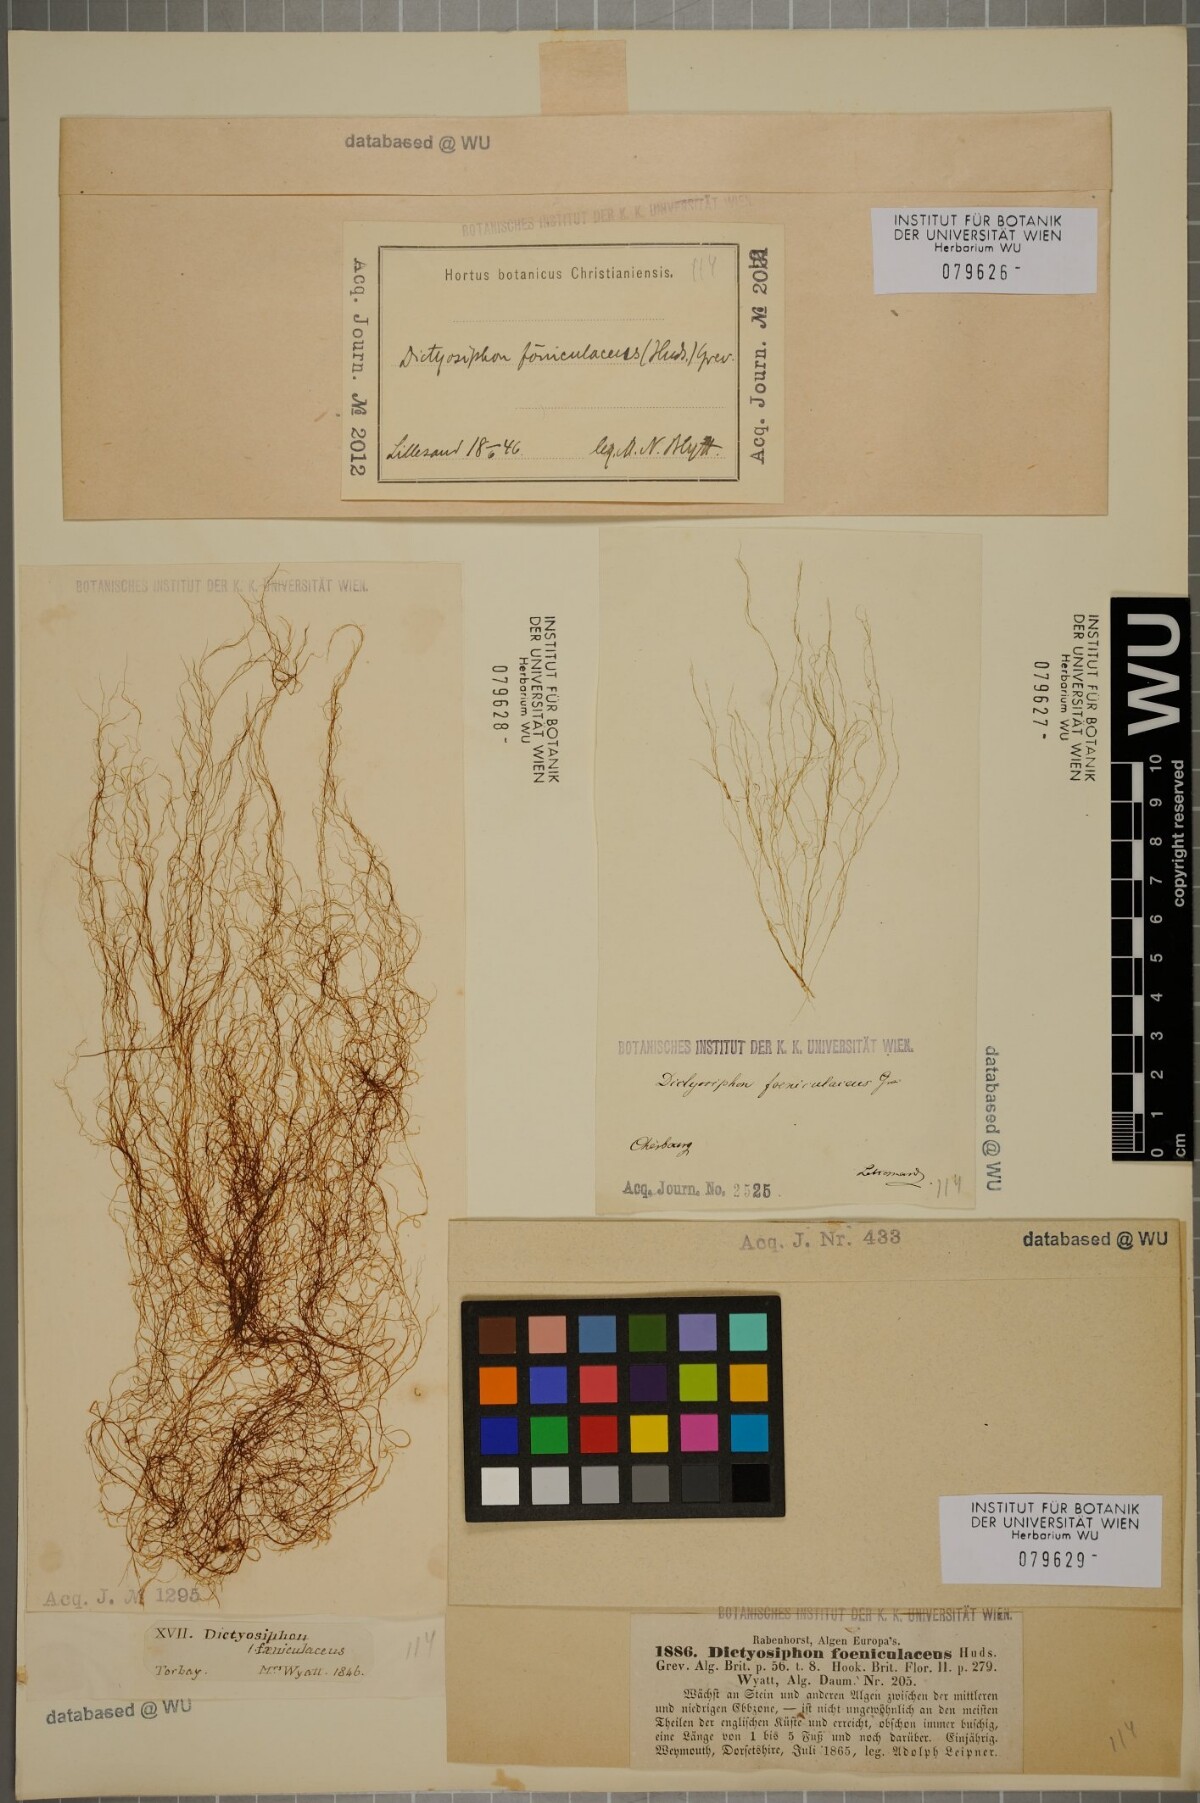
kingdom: Chromista
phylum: Ochrophyta
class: Phaeophyceae
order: Ectocarpales
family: Chordariaceae
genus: Dictyosiphon
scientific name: Dictyosiphon foeniculaceus
